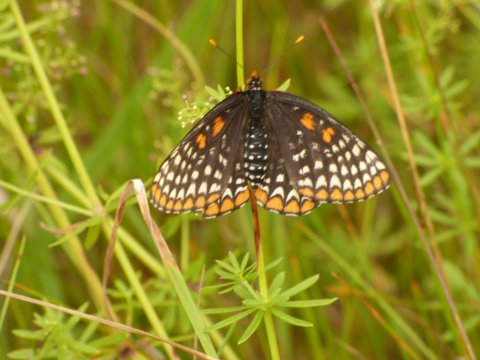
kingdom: Animalia
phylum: Arthropoda
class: Insecta
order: Lepidoptera
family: Nymphalidae
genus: Euphydryas
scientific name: Euphydryas phaeton
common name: Baltimore Checkerspot
